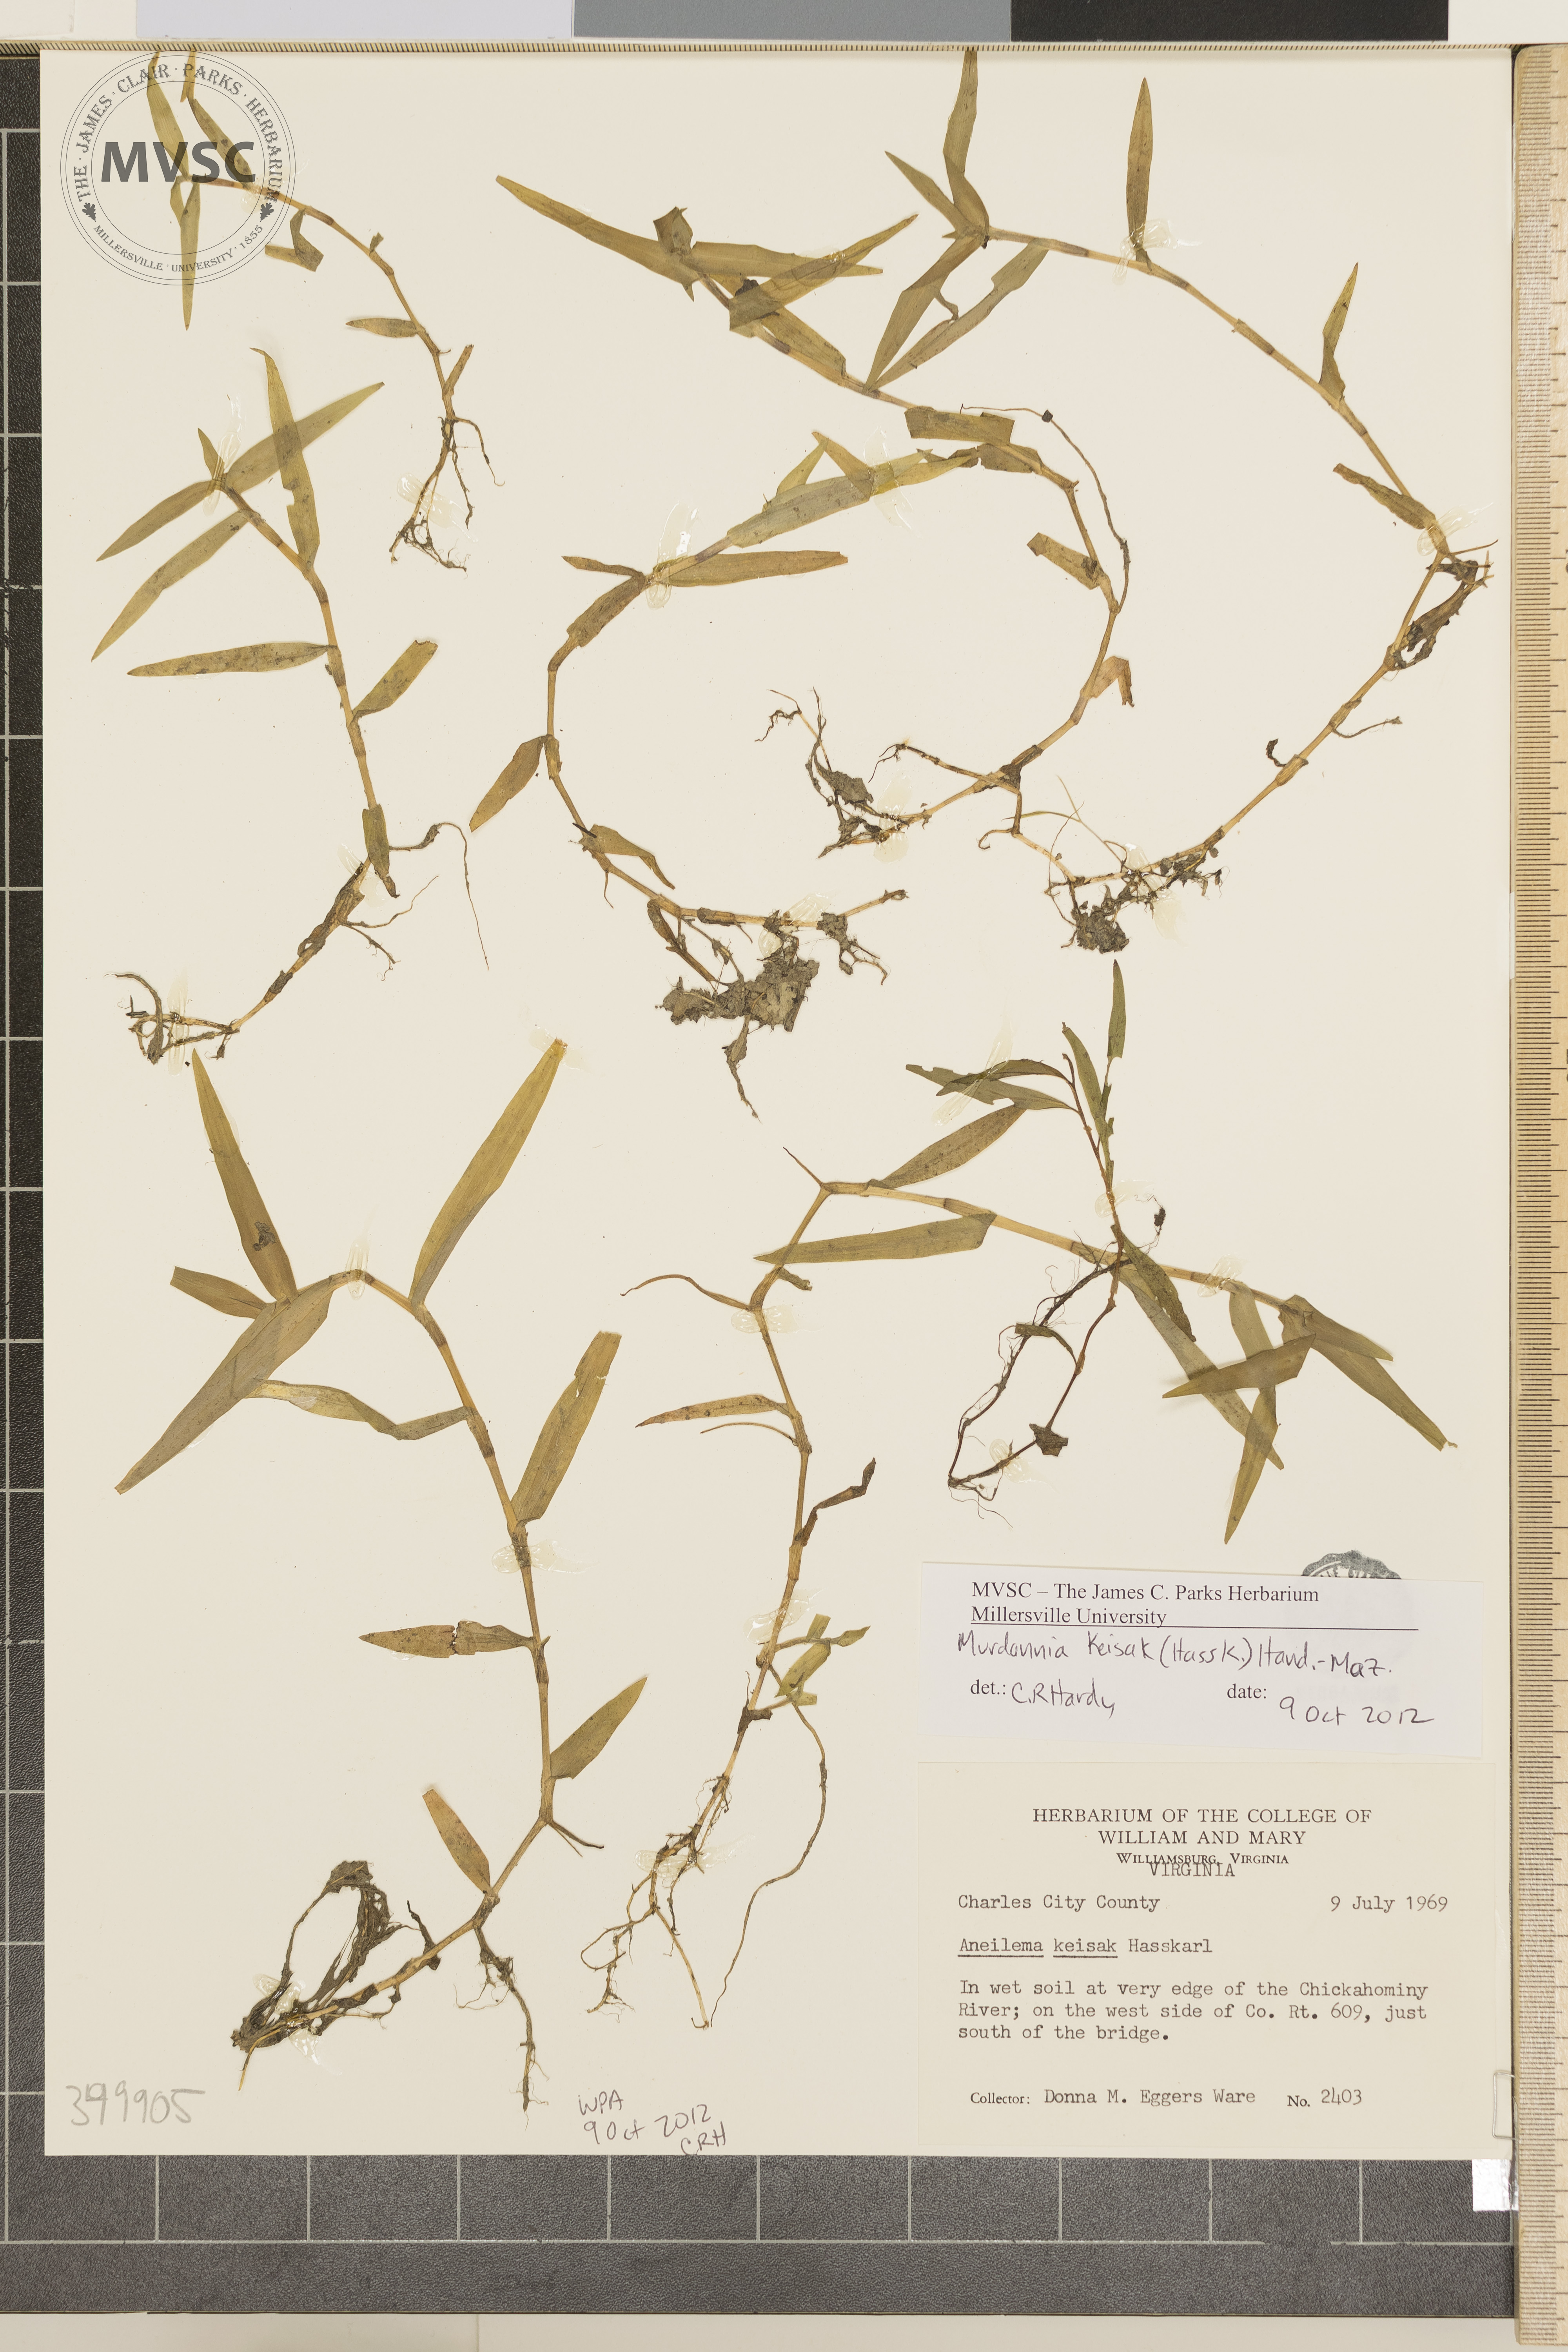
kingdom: Plantae
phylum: Tracheophyta
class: Liliopsida
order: Commelinales
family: Commelinaceae
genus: Murdannia
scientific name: Murdannia keisak
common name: wartremoving herb
